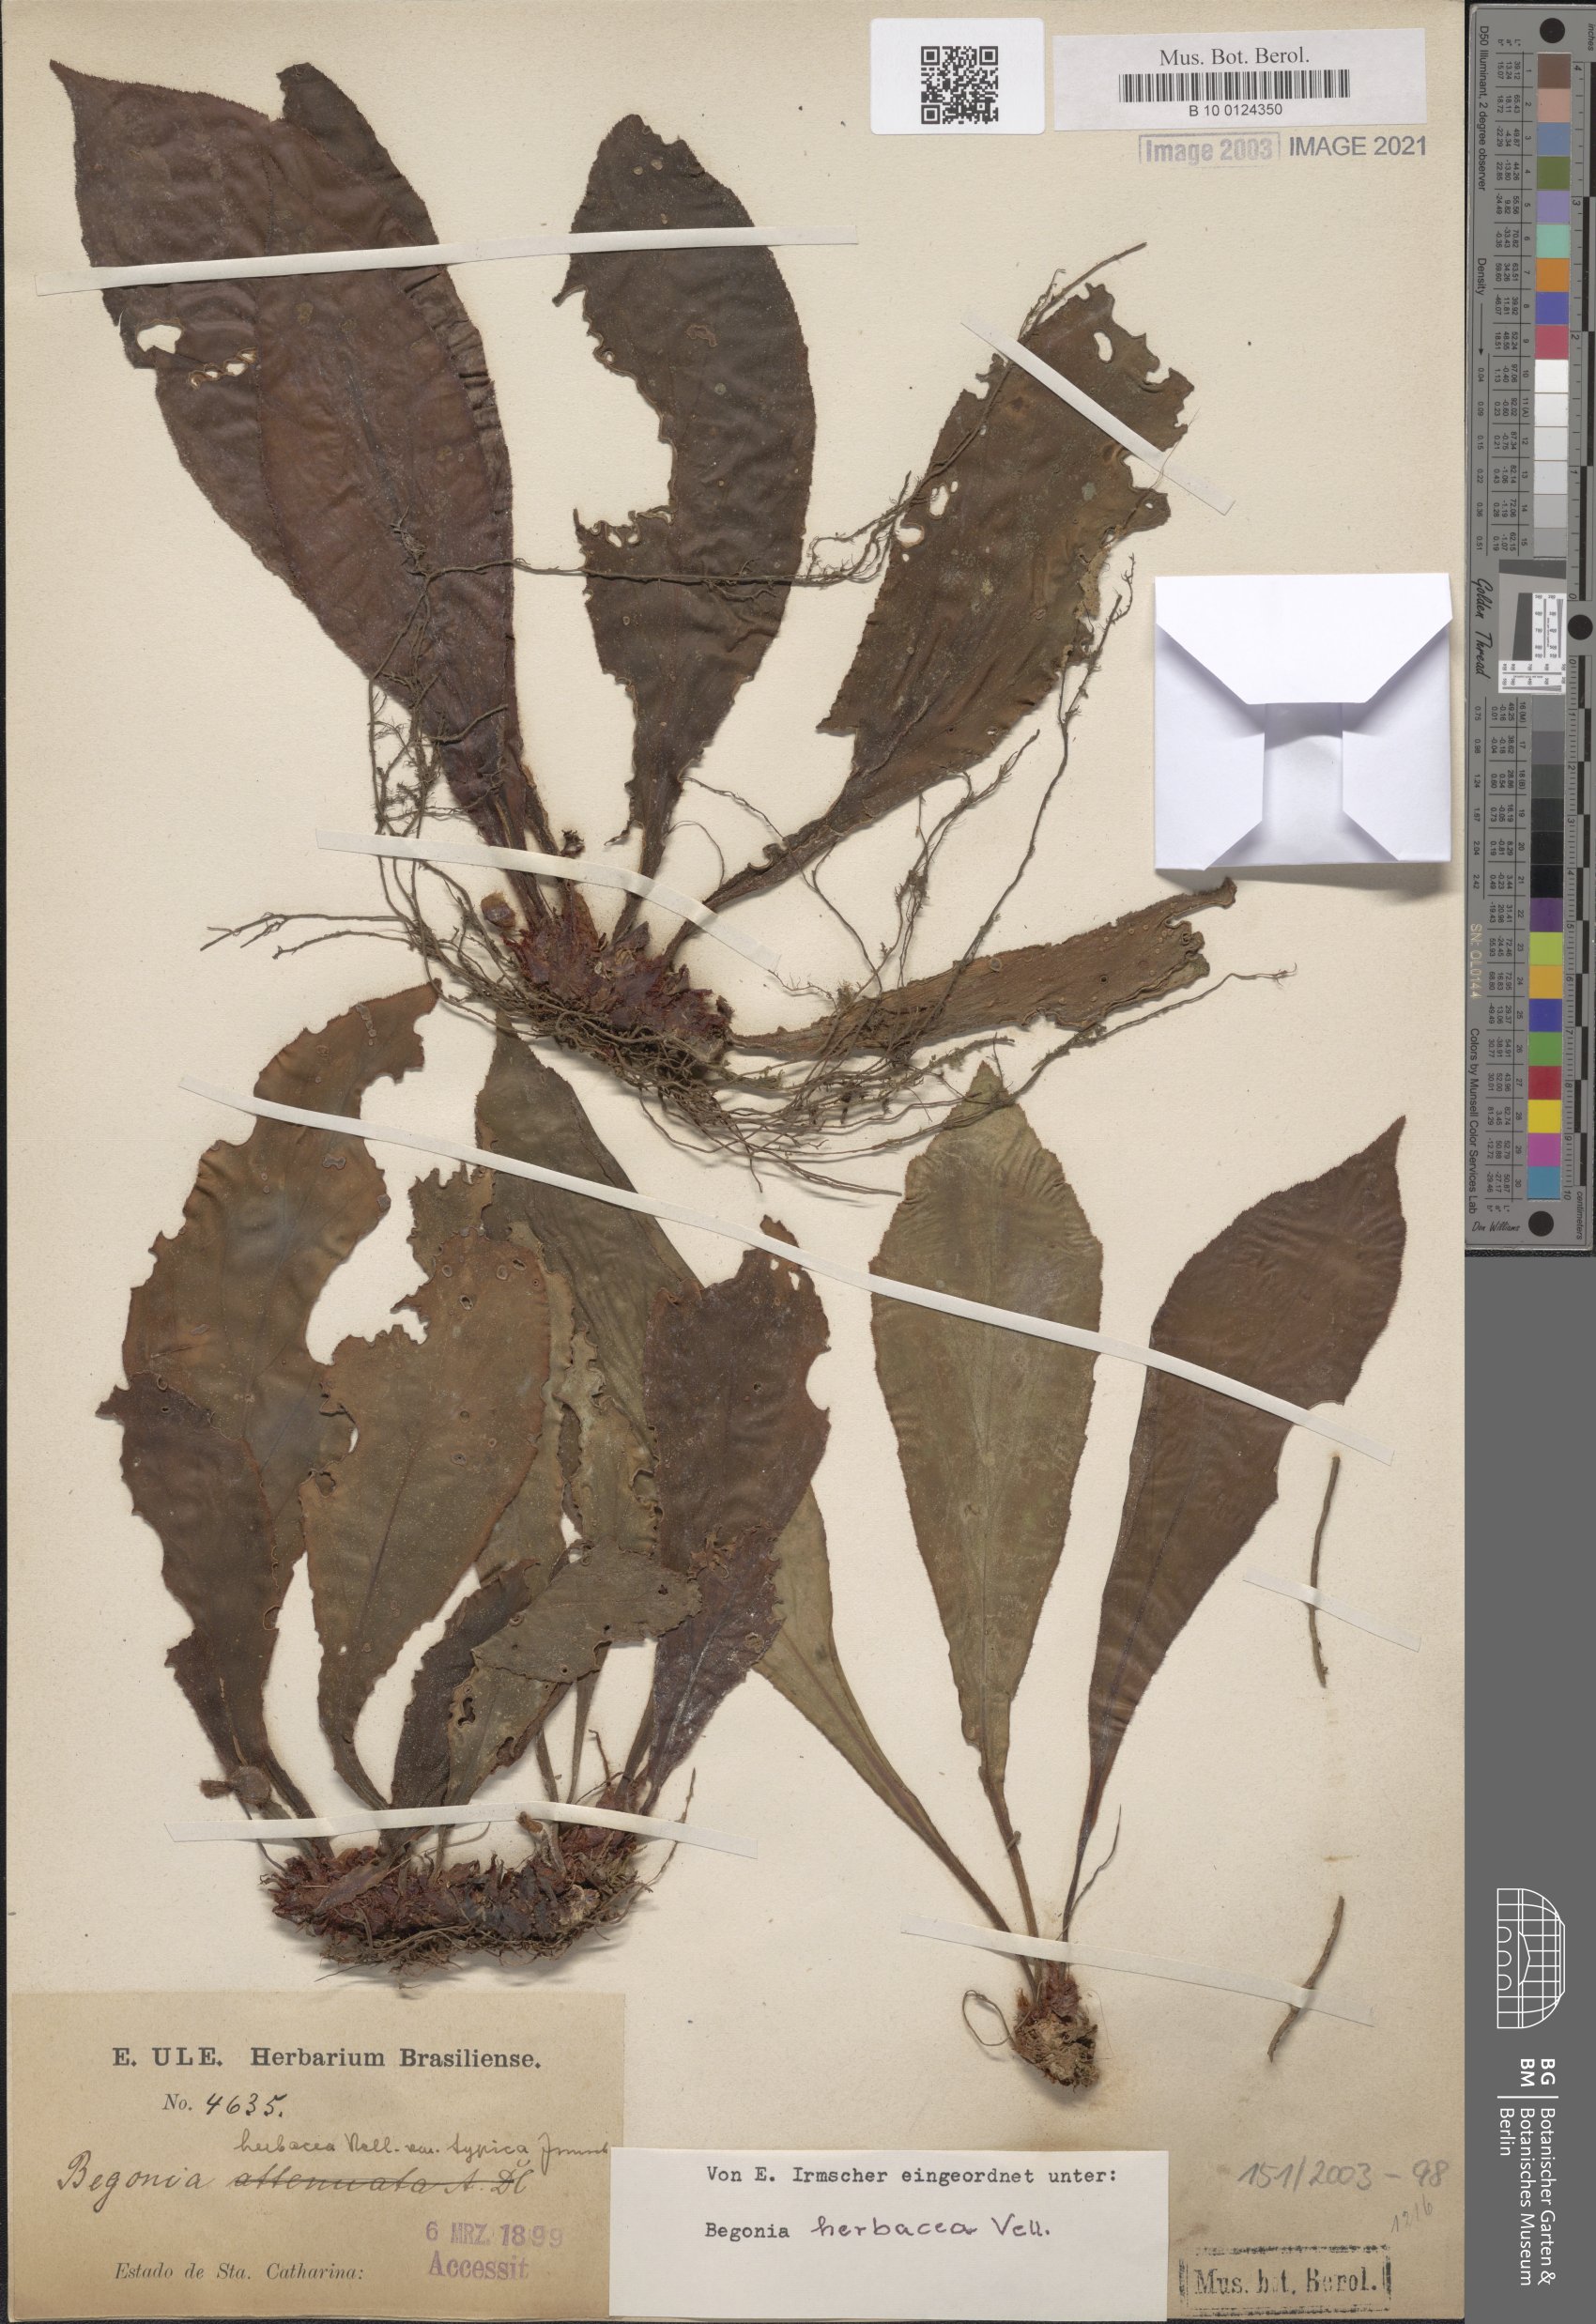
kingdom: Plantae
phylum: Tracheophyta
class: Magnoliopsida
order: Cucurbitales
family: Begoniaceae
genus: Begonia
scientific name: Begonia herbacea
